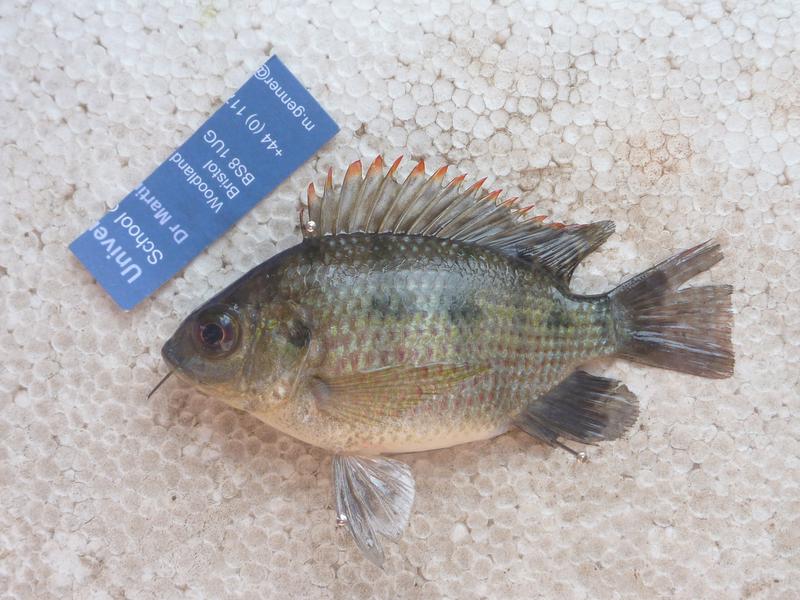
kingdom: Animalia
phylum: Chordata
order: Perciformes
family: Cichlidae
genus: Oreochromis
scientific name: Oreochromis upembae
